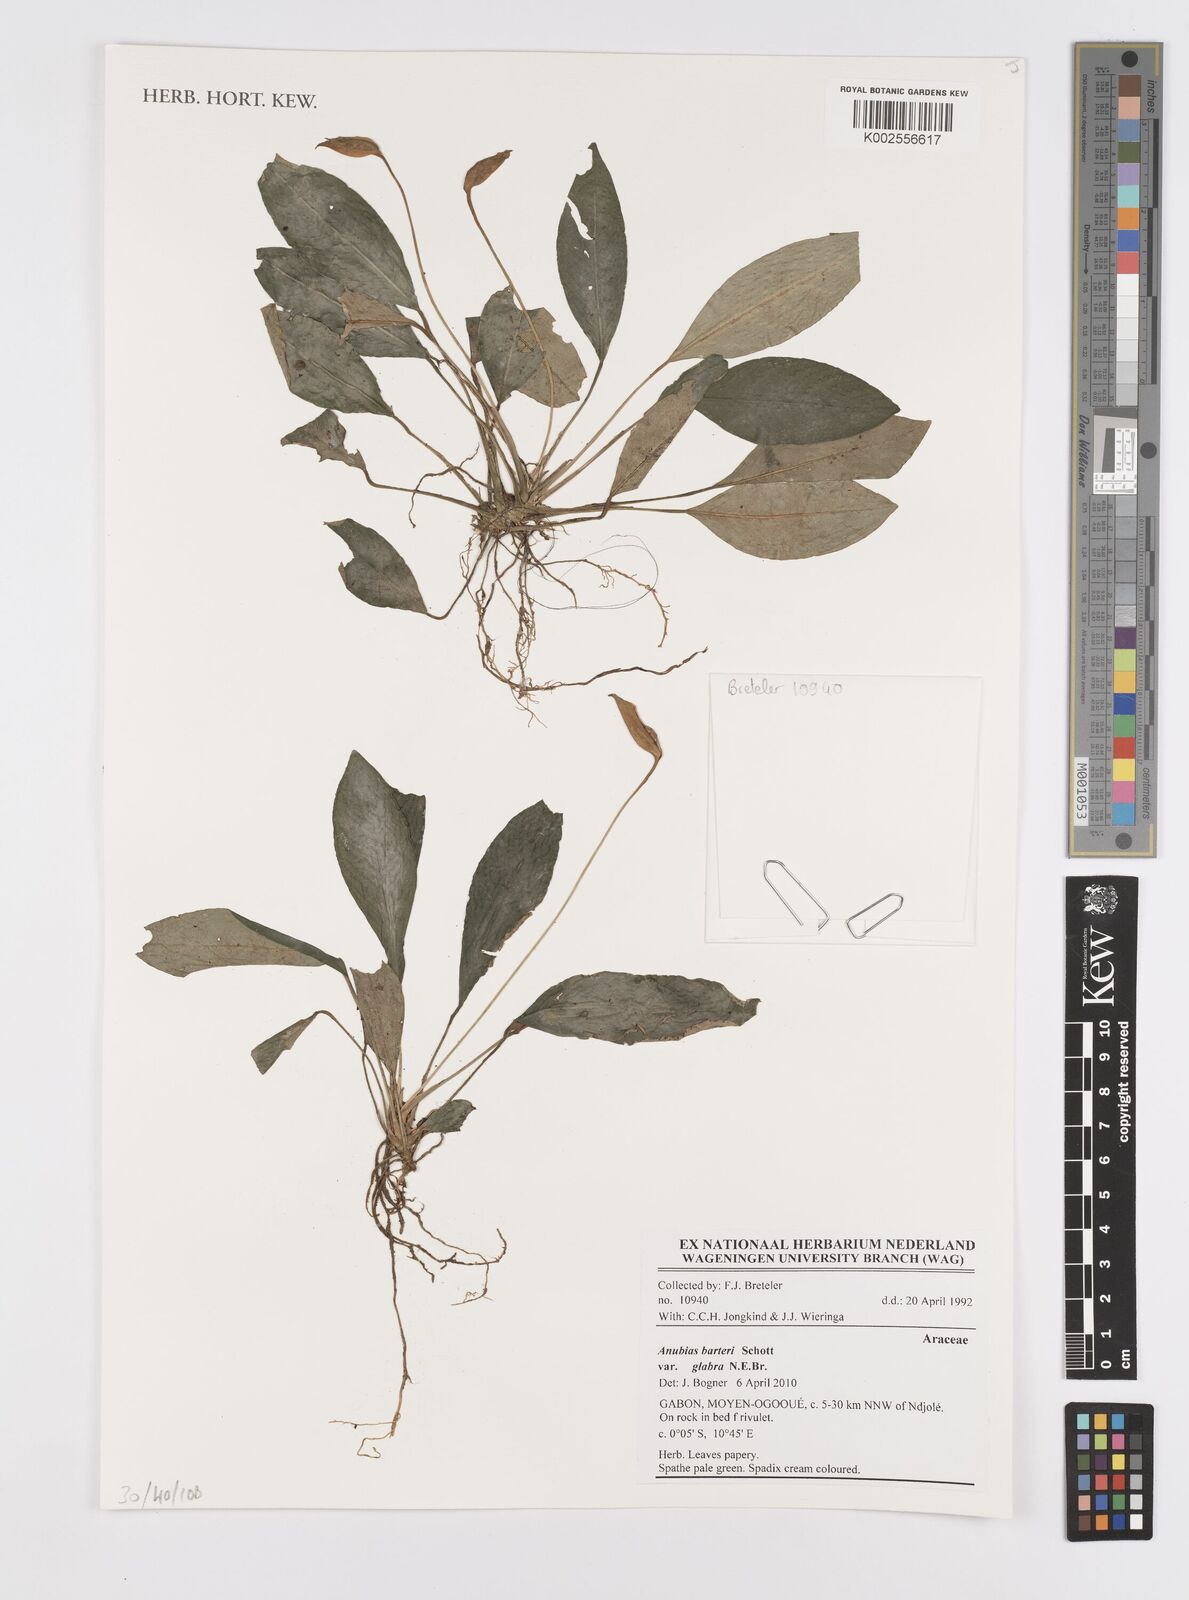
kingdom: Plantae
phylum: Tracheophyta
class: Liliopsida
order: Alismatales
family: Araceae
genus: Anubias
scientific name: Anubias barteri
